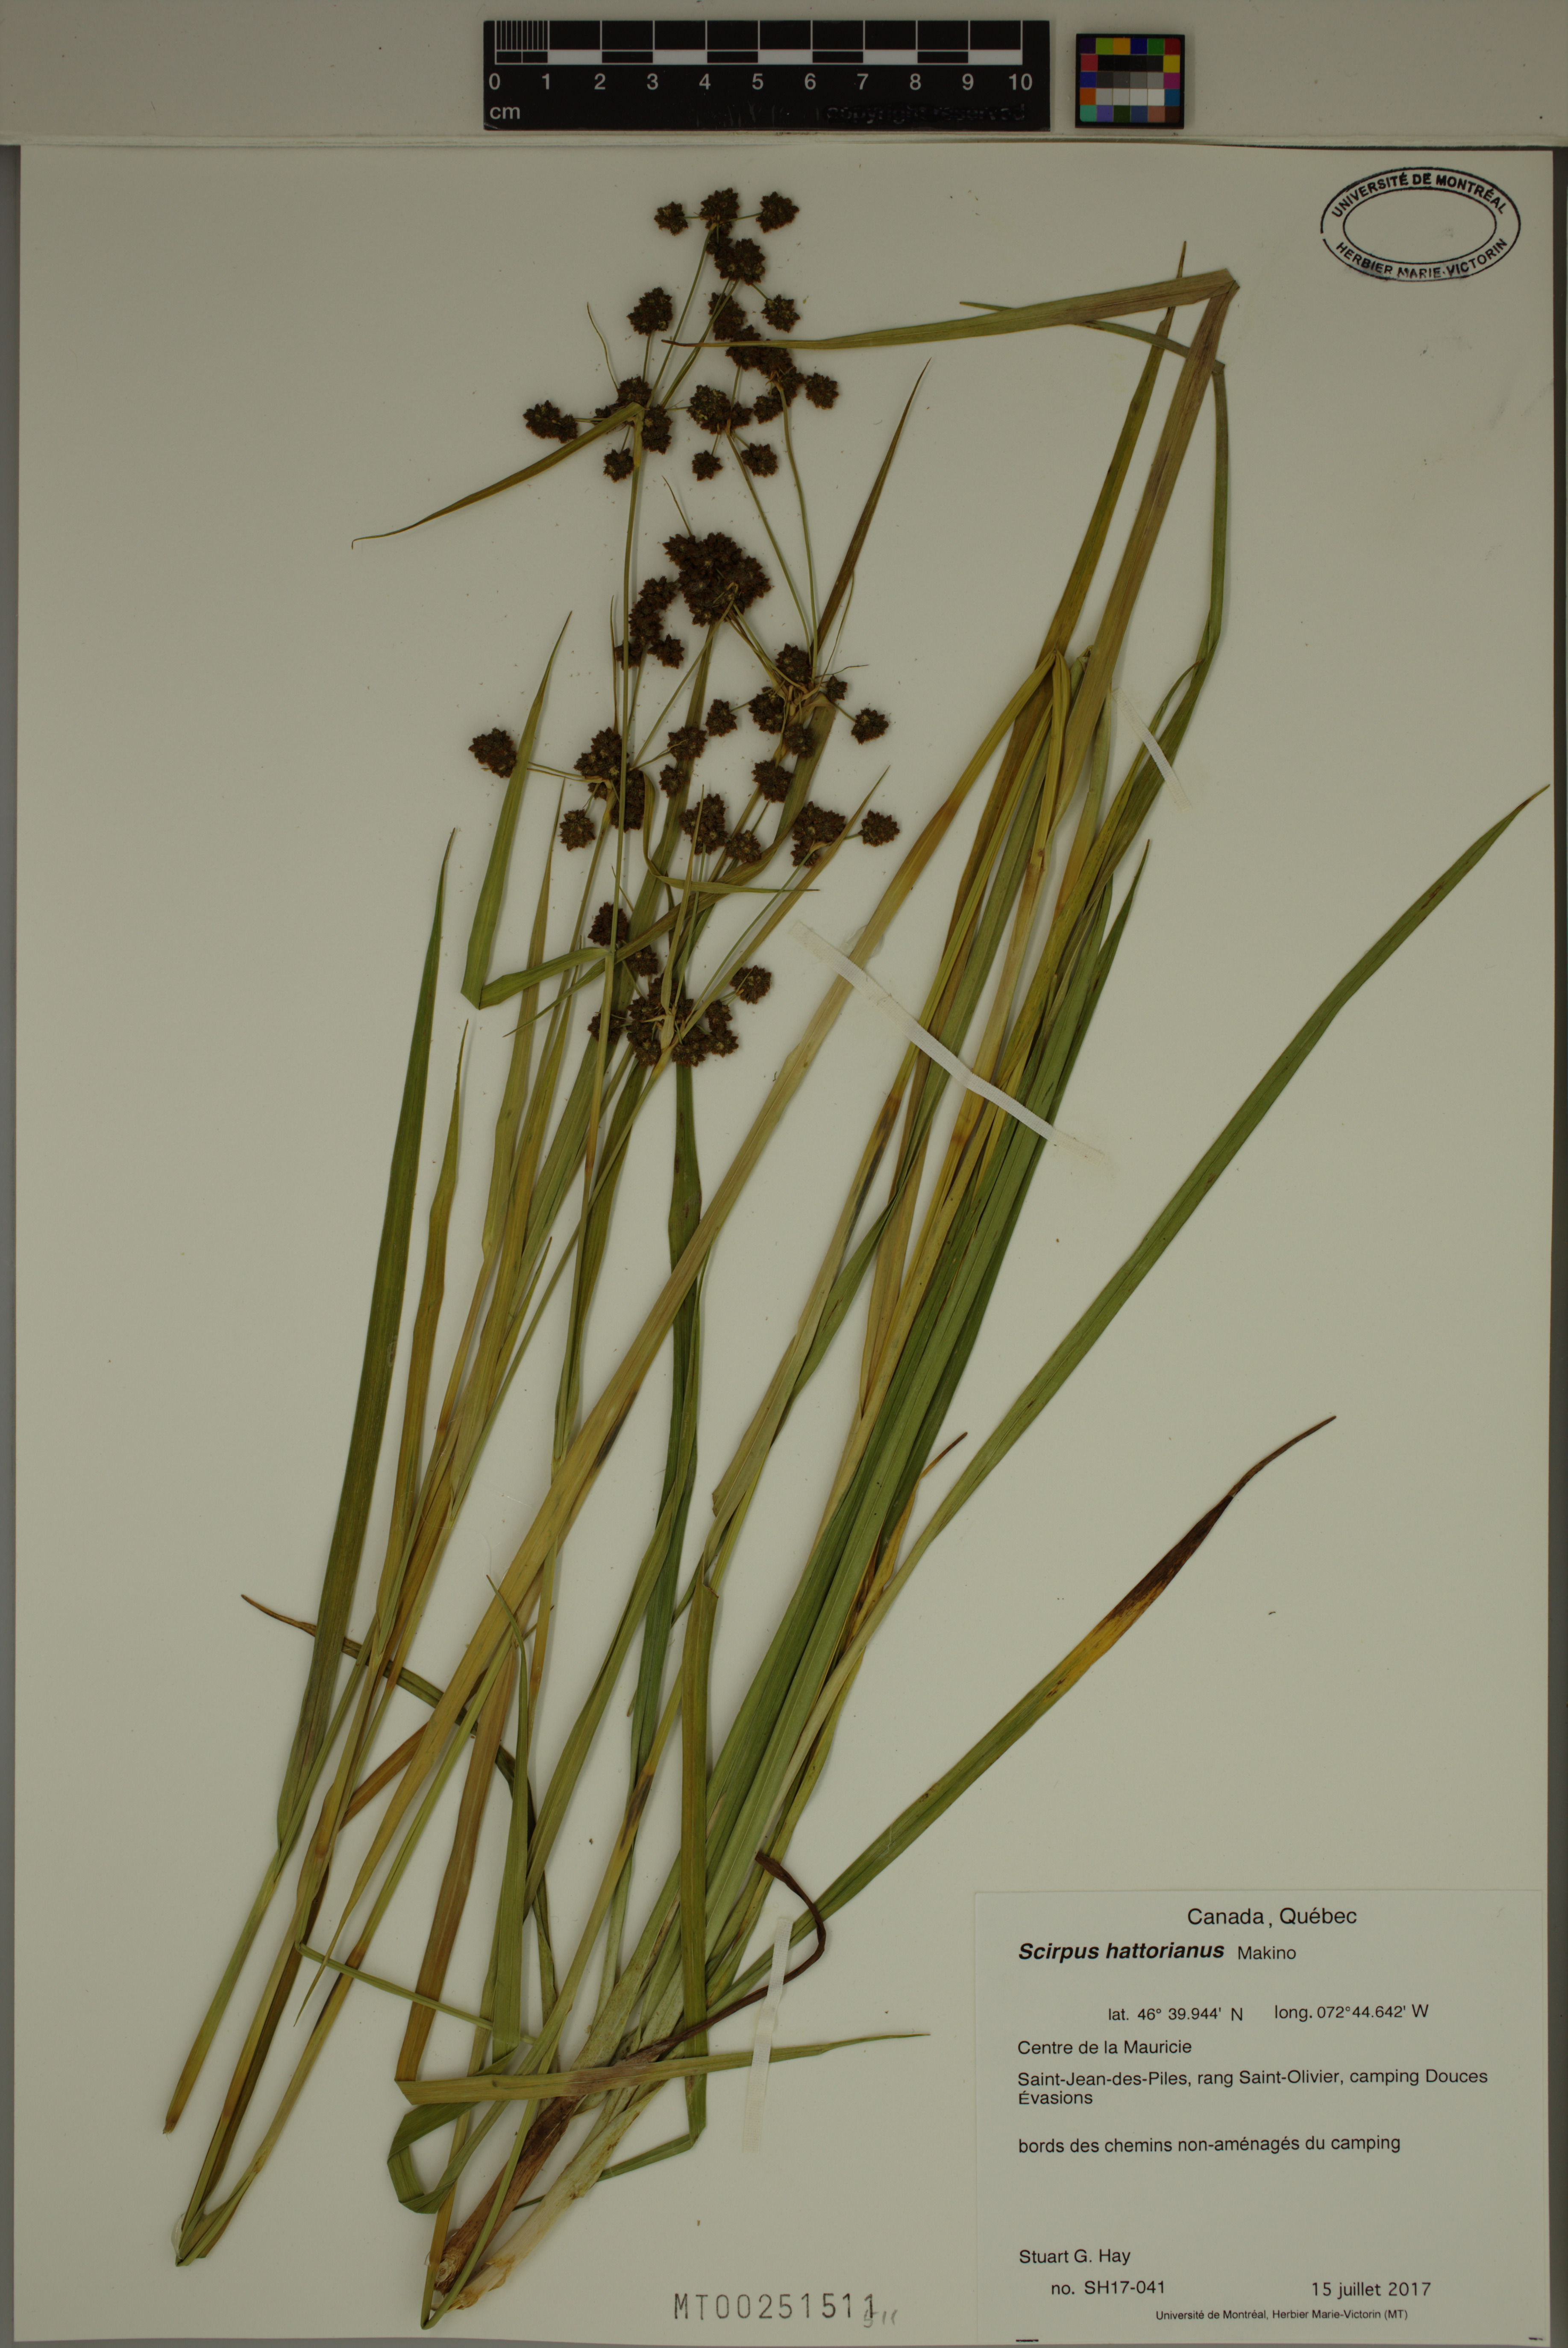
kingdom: Plantae
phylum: Tracheophyta
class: Liliopsida
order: Poales
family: Cyperaceae
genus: Scirpus
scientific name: Scirpus hattorianus
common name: Early dark-green bulrush
